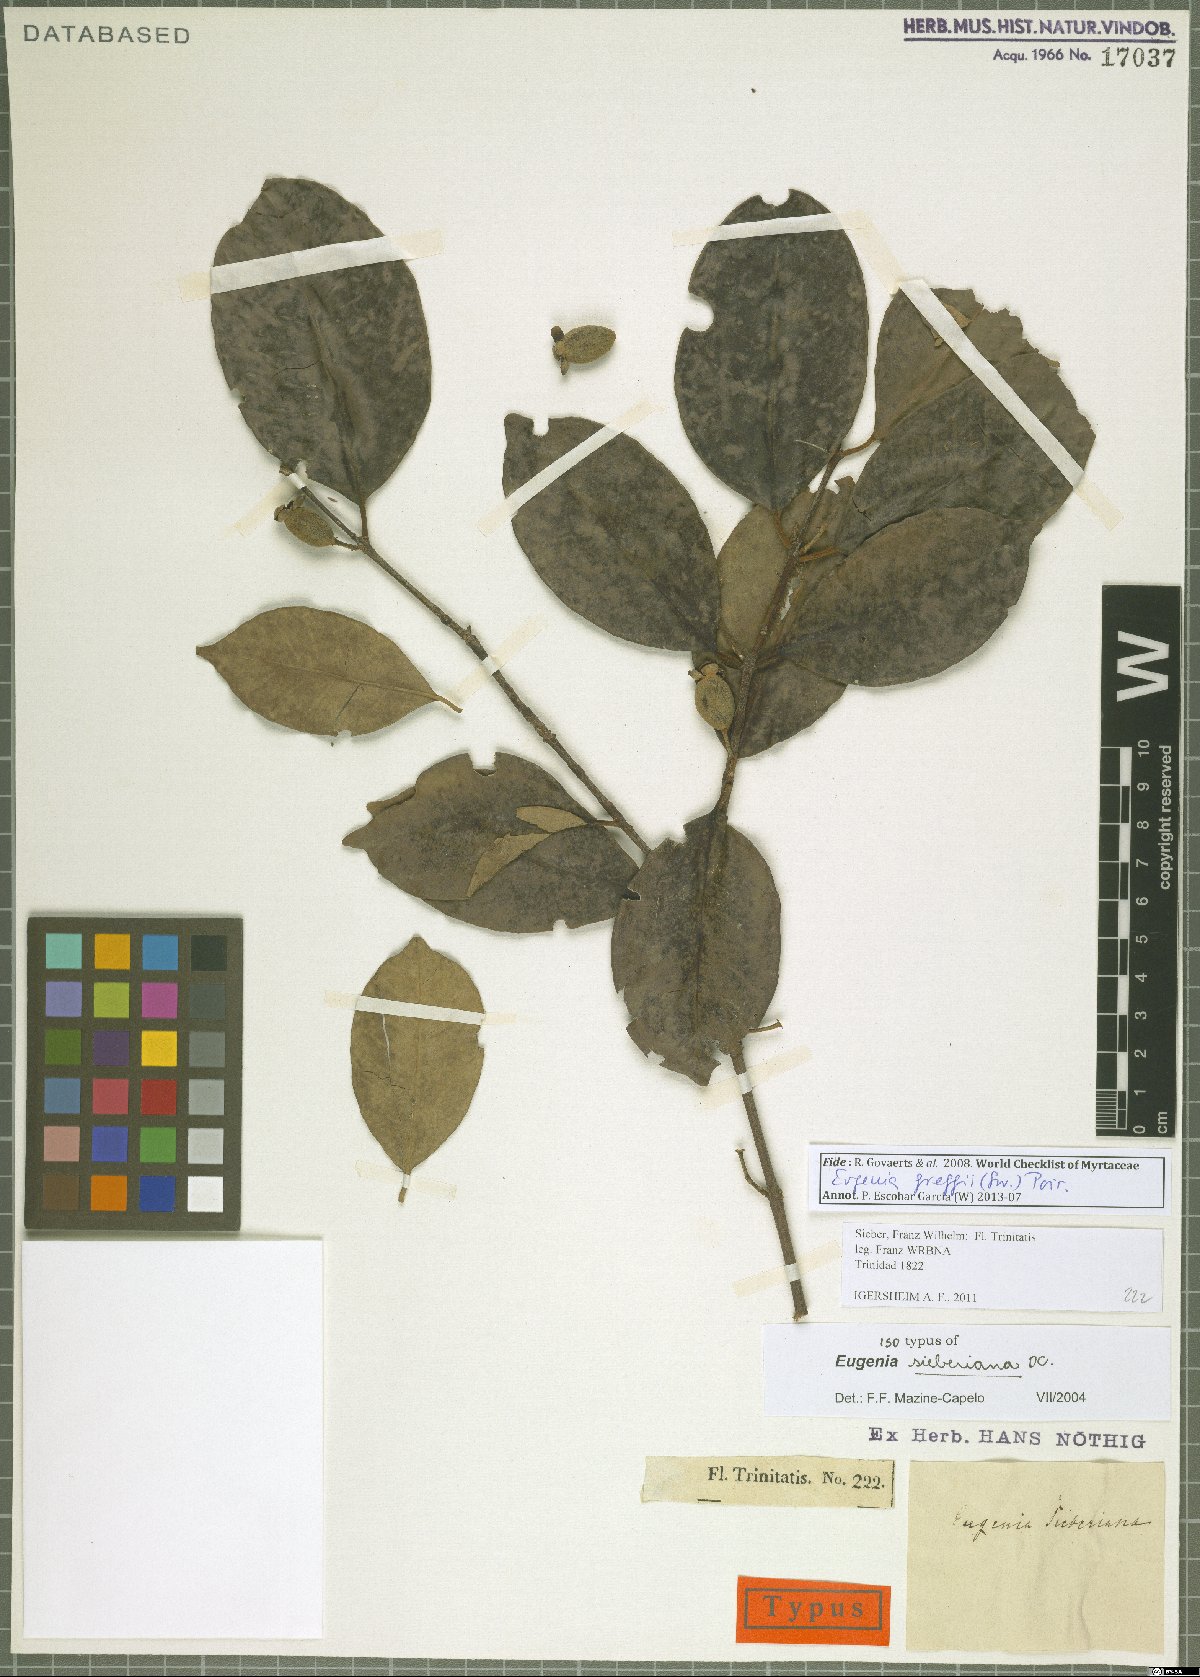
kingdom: Plantae
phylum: Tracheophyta
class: Magnoliopsida
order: Myrtales
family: Myrtaceae
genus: Eugenia
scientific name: Eugenia greggii
